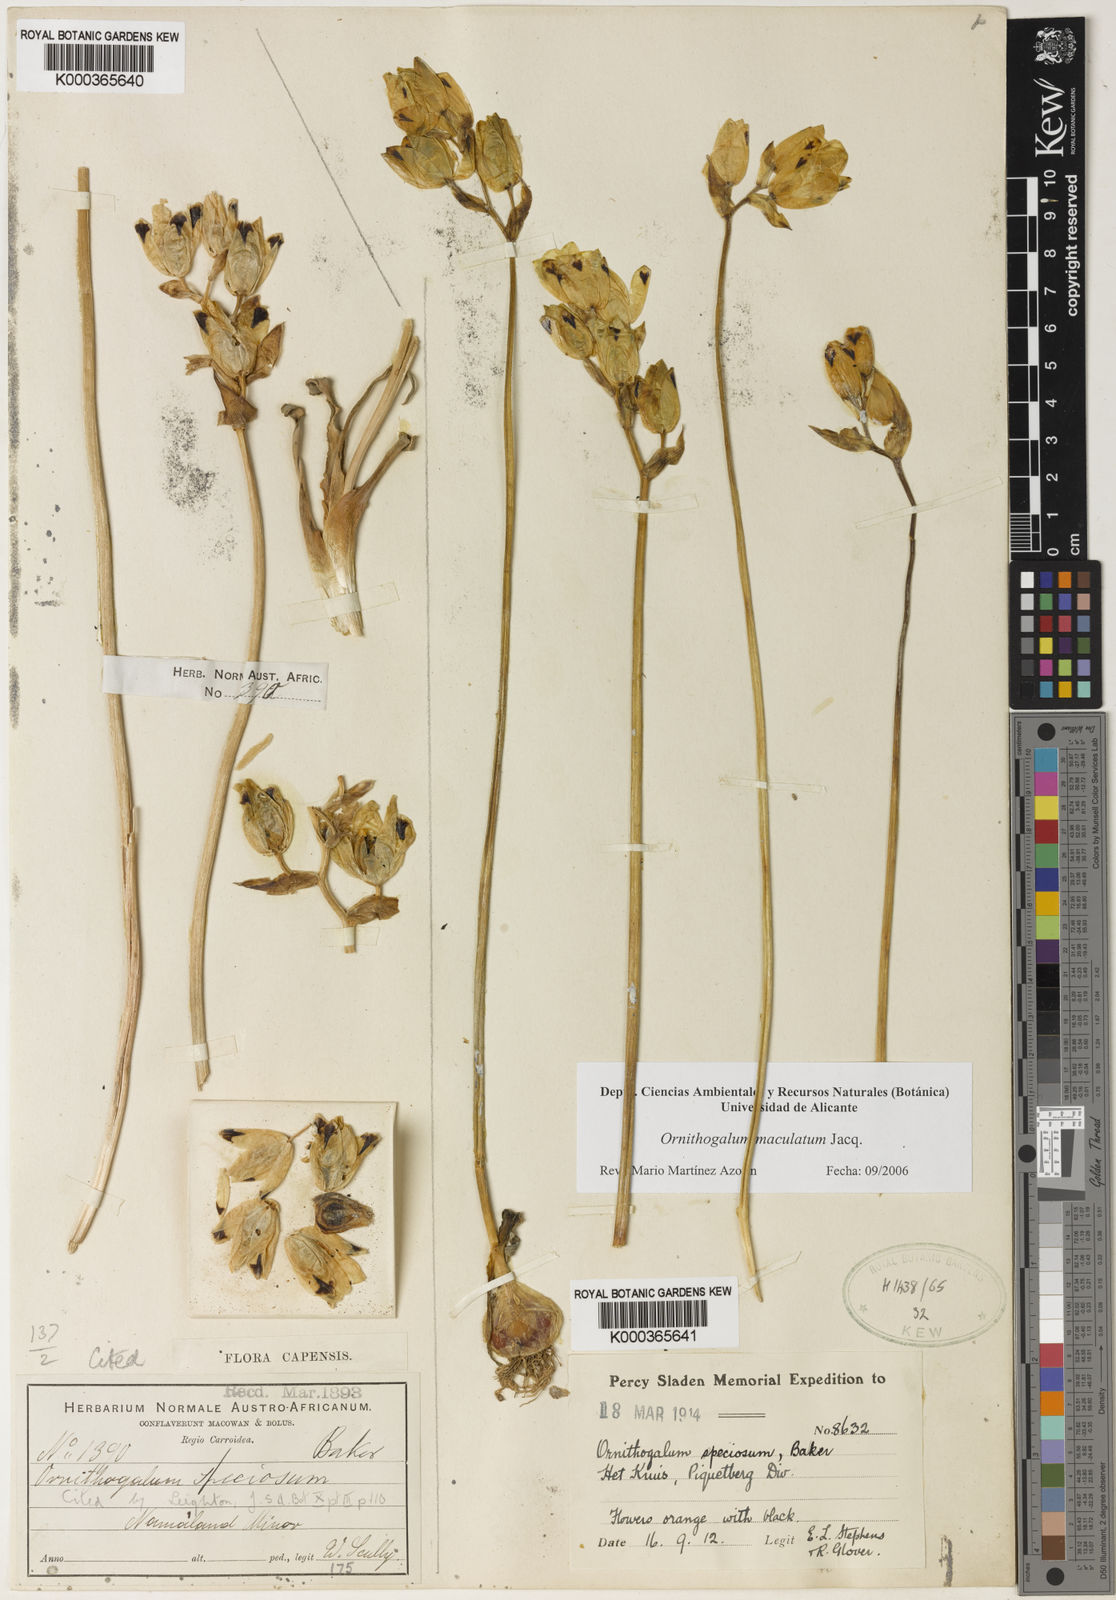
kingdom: Plantae
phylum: Tracheophyta
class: Liliopsida
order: Asparagales
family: Asparagaceae
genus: Ornithogalum
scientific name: Ornithogalum maculatum
